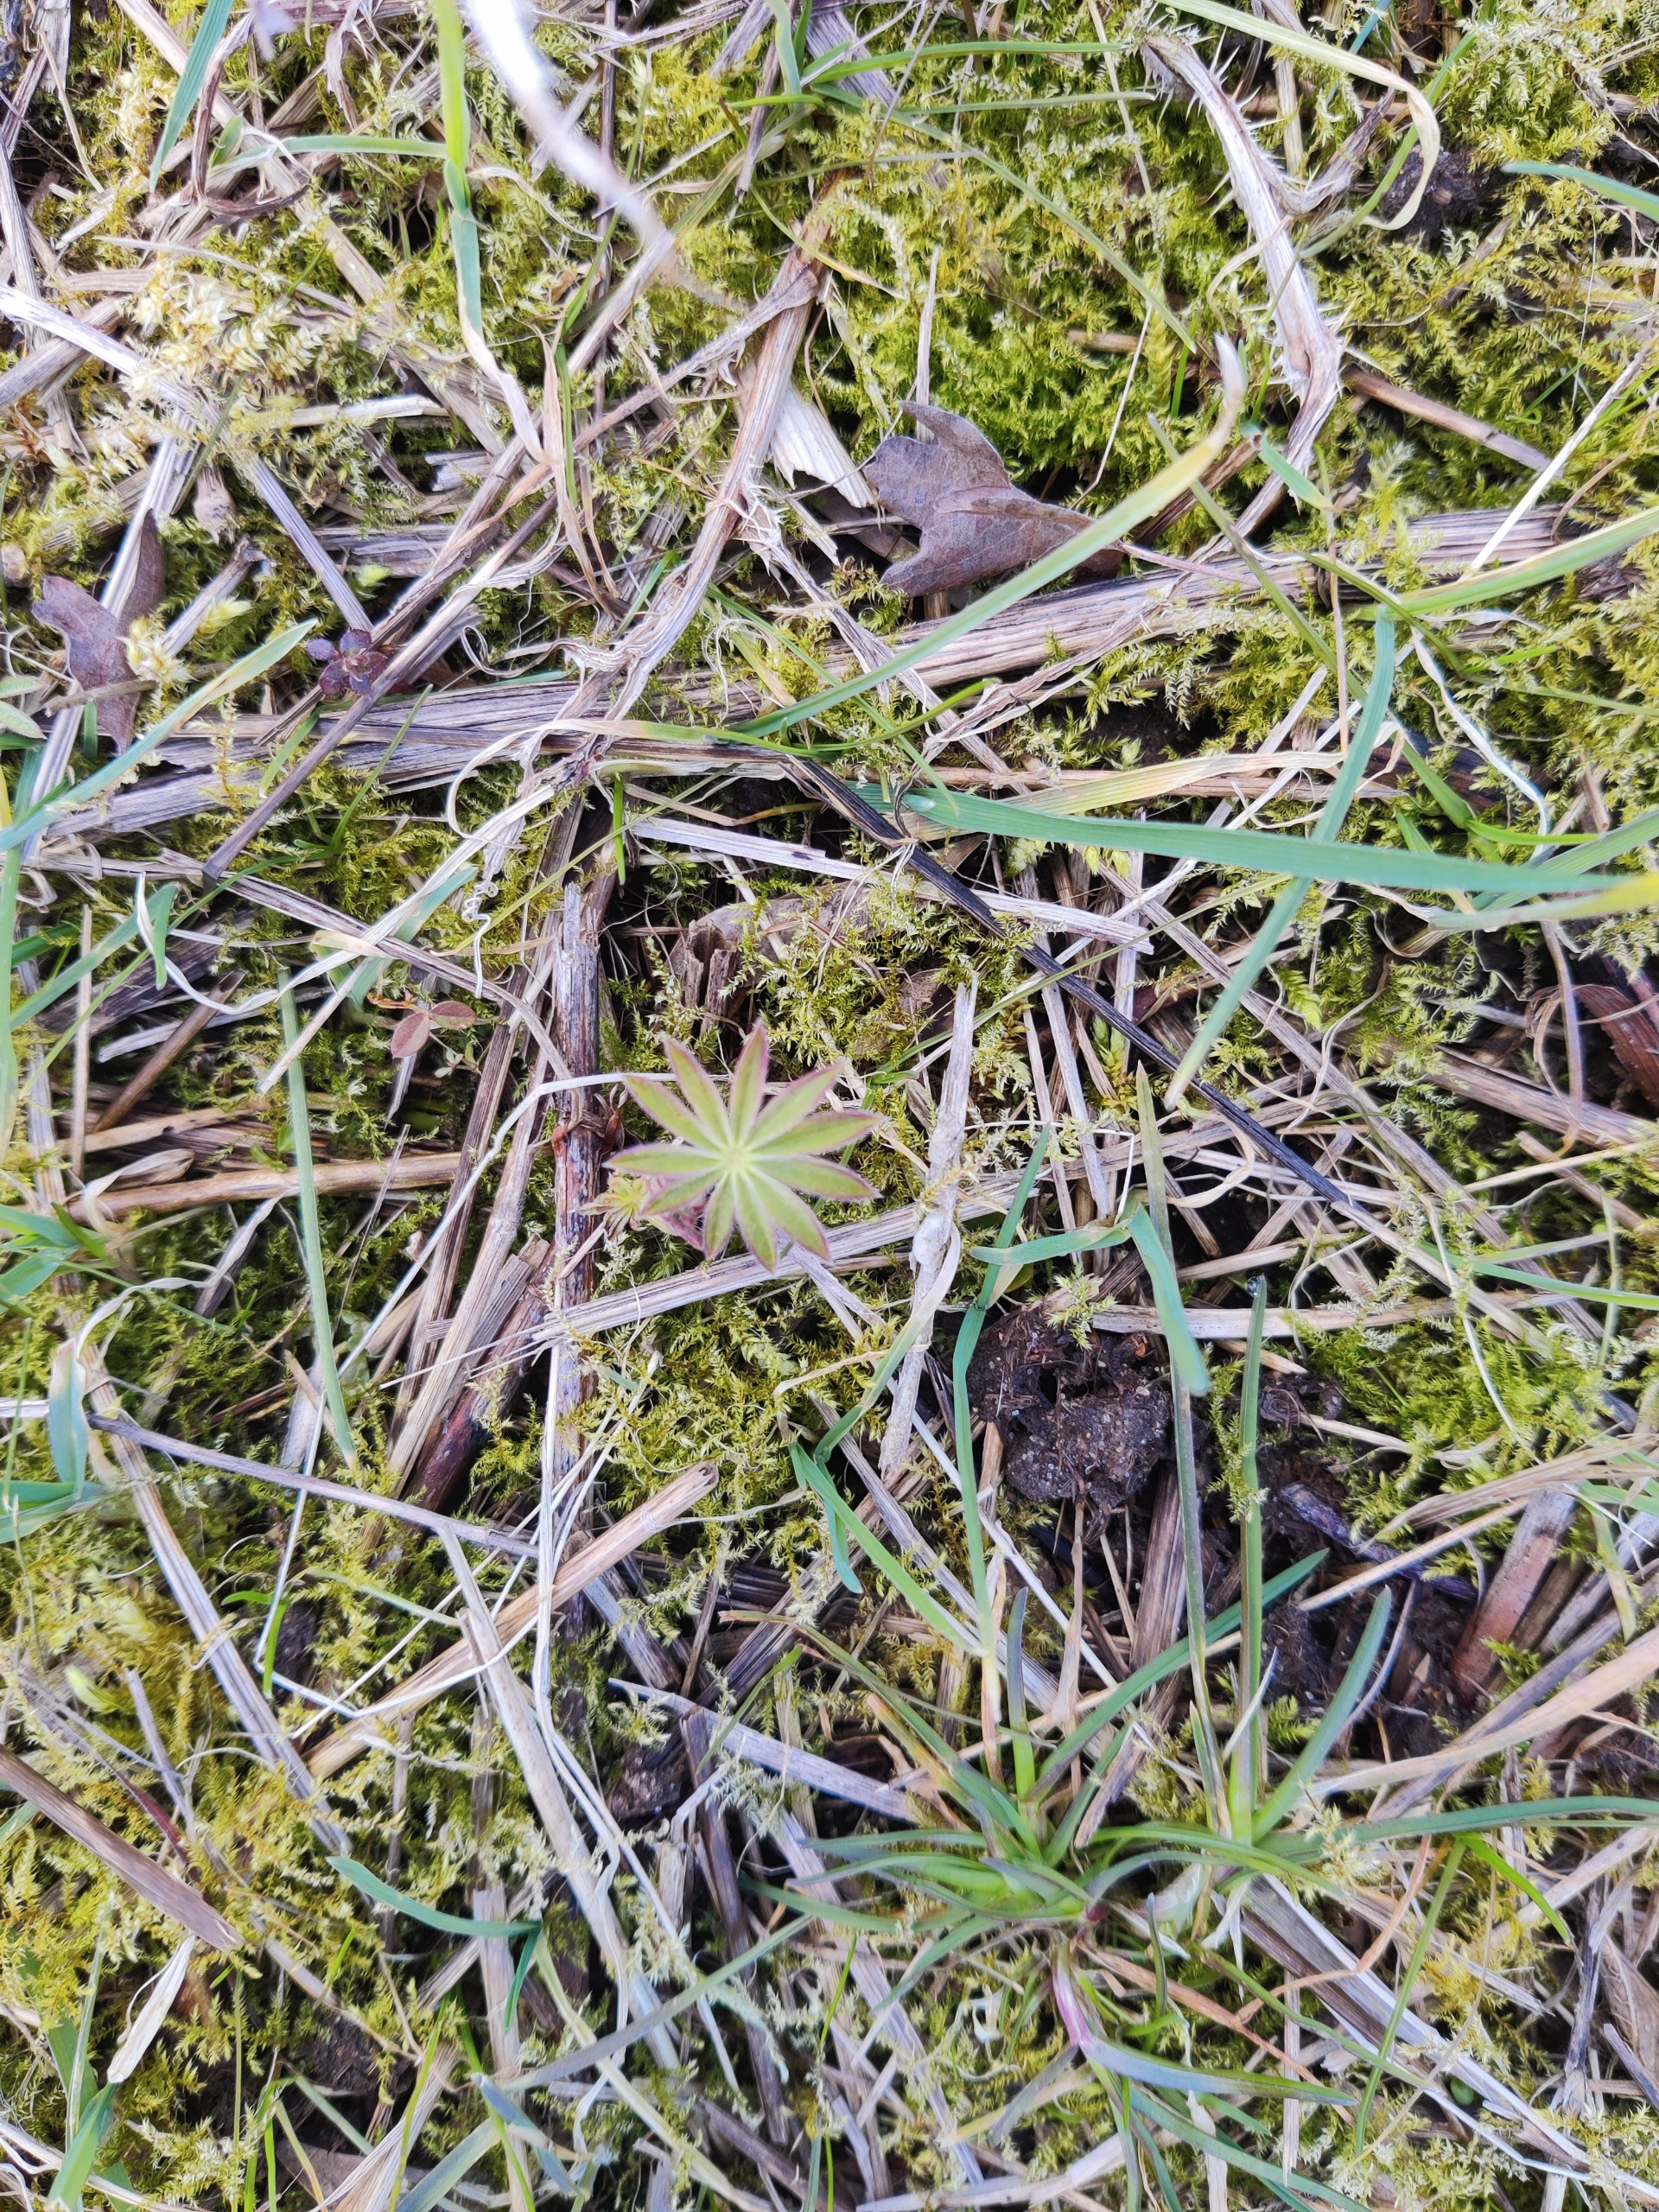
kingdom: Plantae
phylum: Tracheophyta
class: Magnoliopsida
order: Fabales
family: Fabaceae
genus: Lupinus
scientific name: Lupinus polyphyllus
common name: Mangebladet lupin
